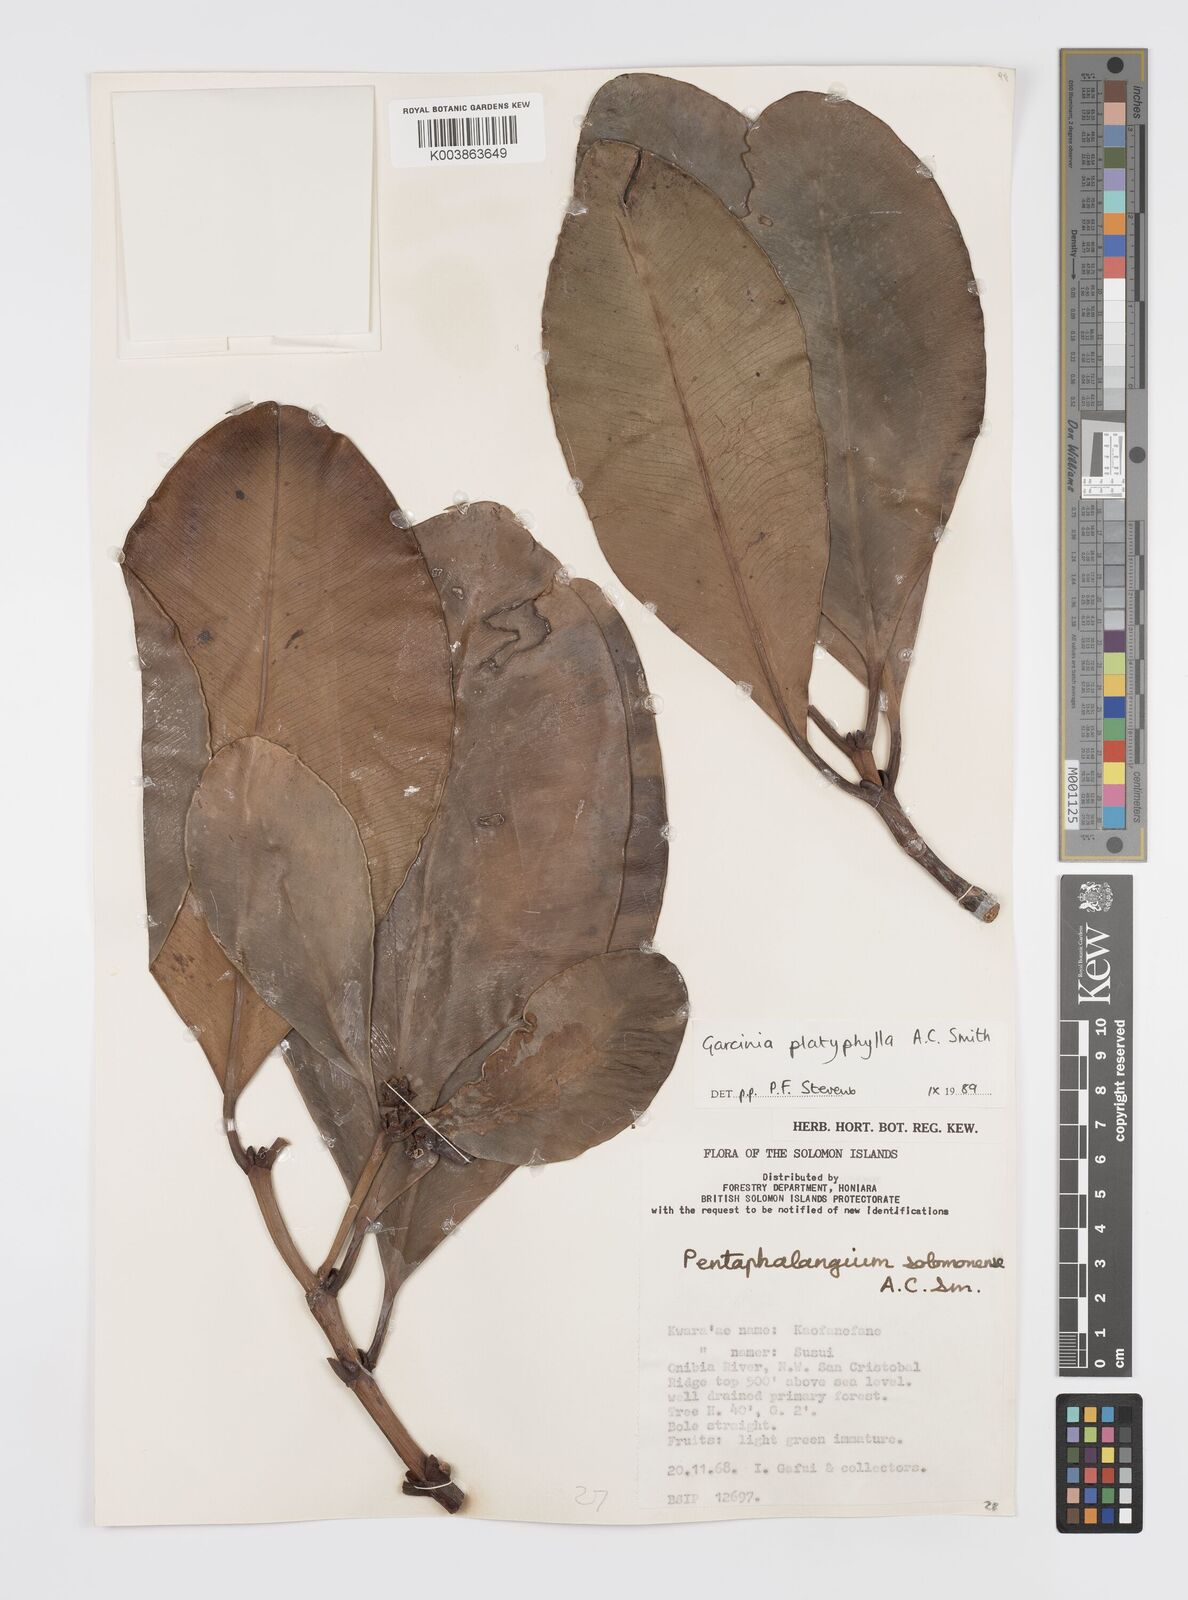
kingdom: Plantae
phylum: Tracheophyta
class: Magnoliopsida
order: Malpighiales
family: Clusiaceae
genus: Garcinia
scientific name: Garcinia platyphylla
